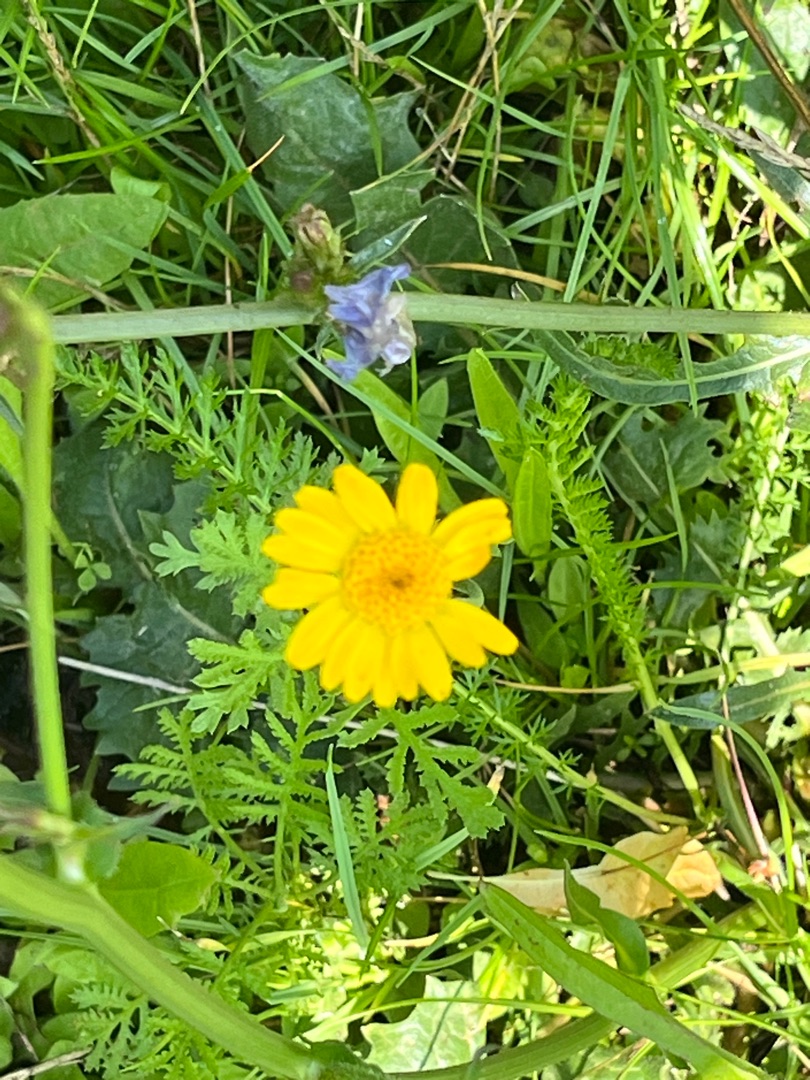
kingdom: Plantae
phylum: Tracheophyta
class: Magnoliopsida
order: Asterales
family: Asteraceae
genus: Cota
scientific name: Cota tinctoria
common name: Farve-gåseurt
